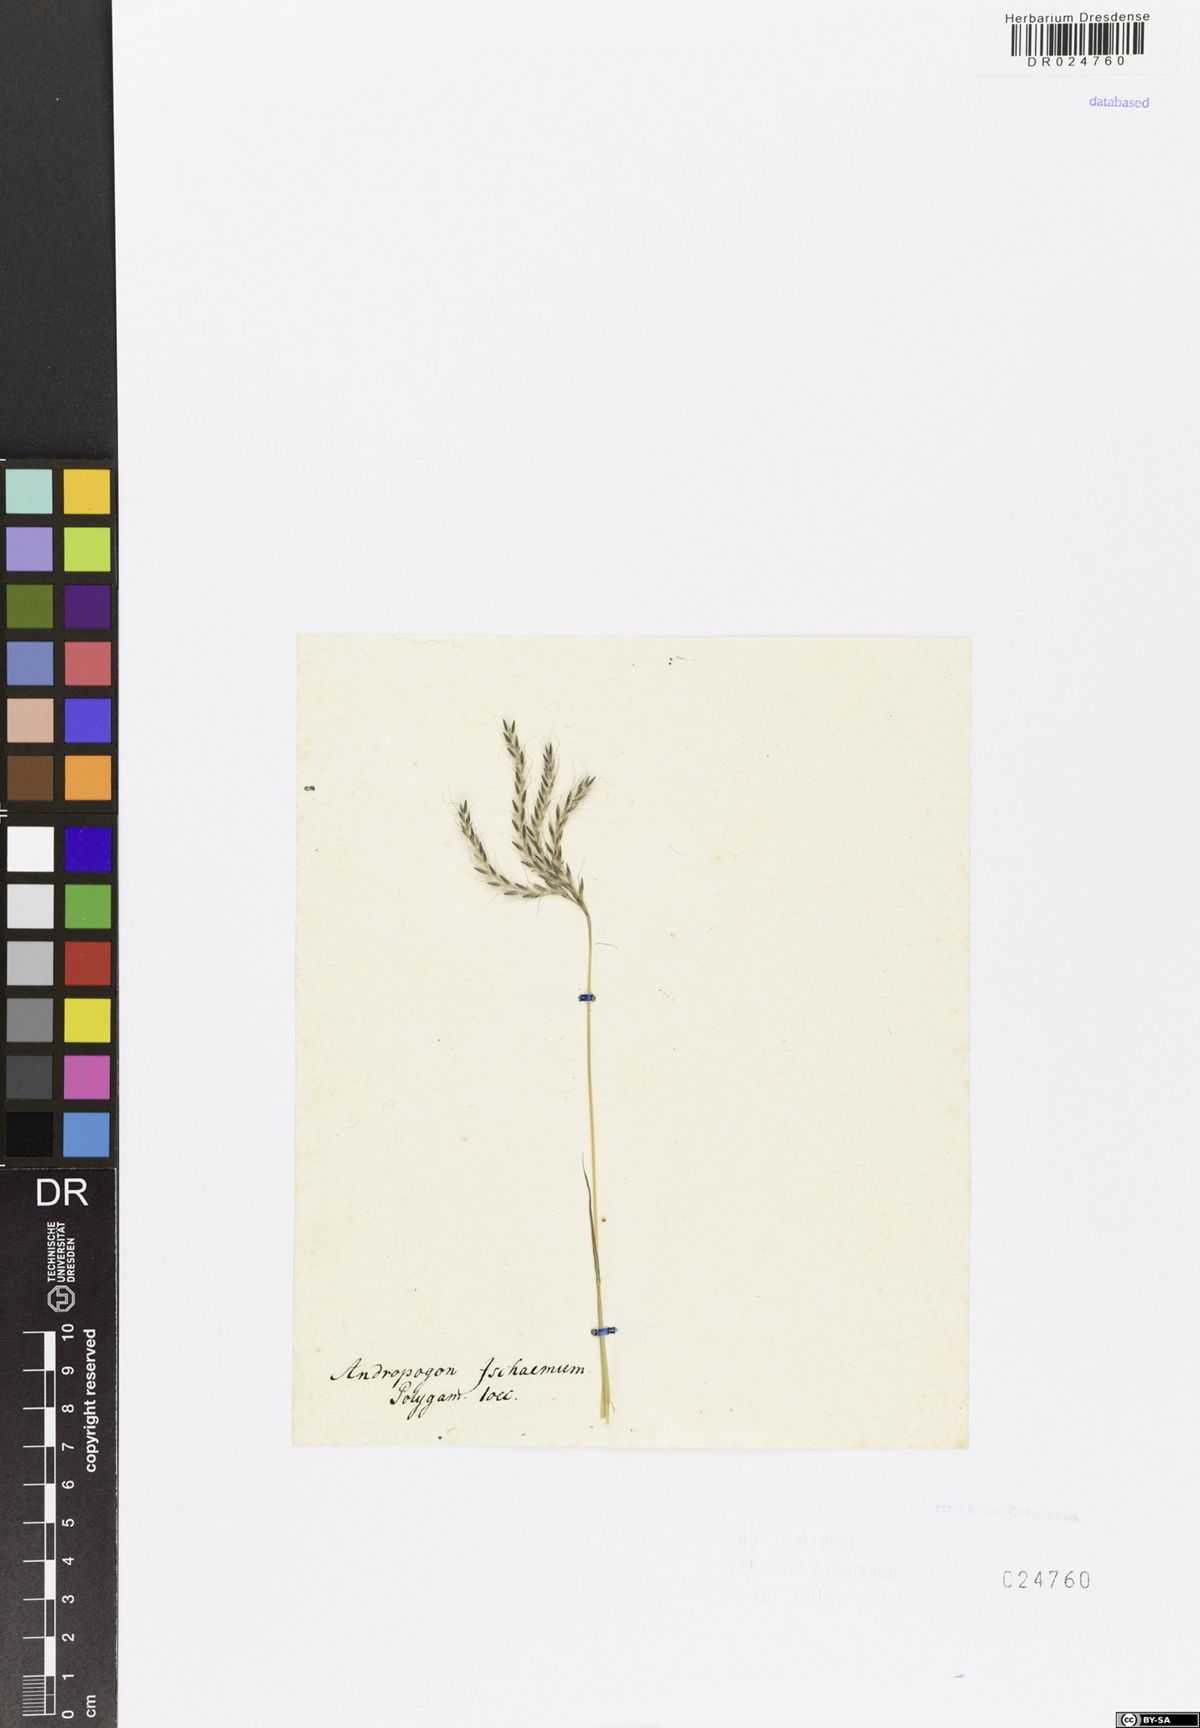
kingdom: Plantae
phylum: Tracheophyta
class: Liliopsida
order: Poales
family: Poaceae
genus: Bothriochloa
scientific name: Bothriochloa ischaemum
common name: Yellow bluestem
